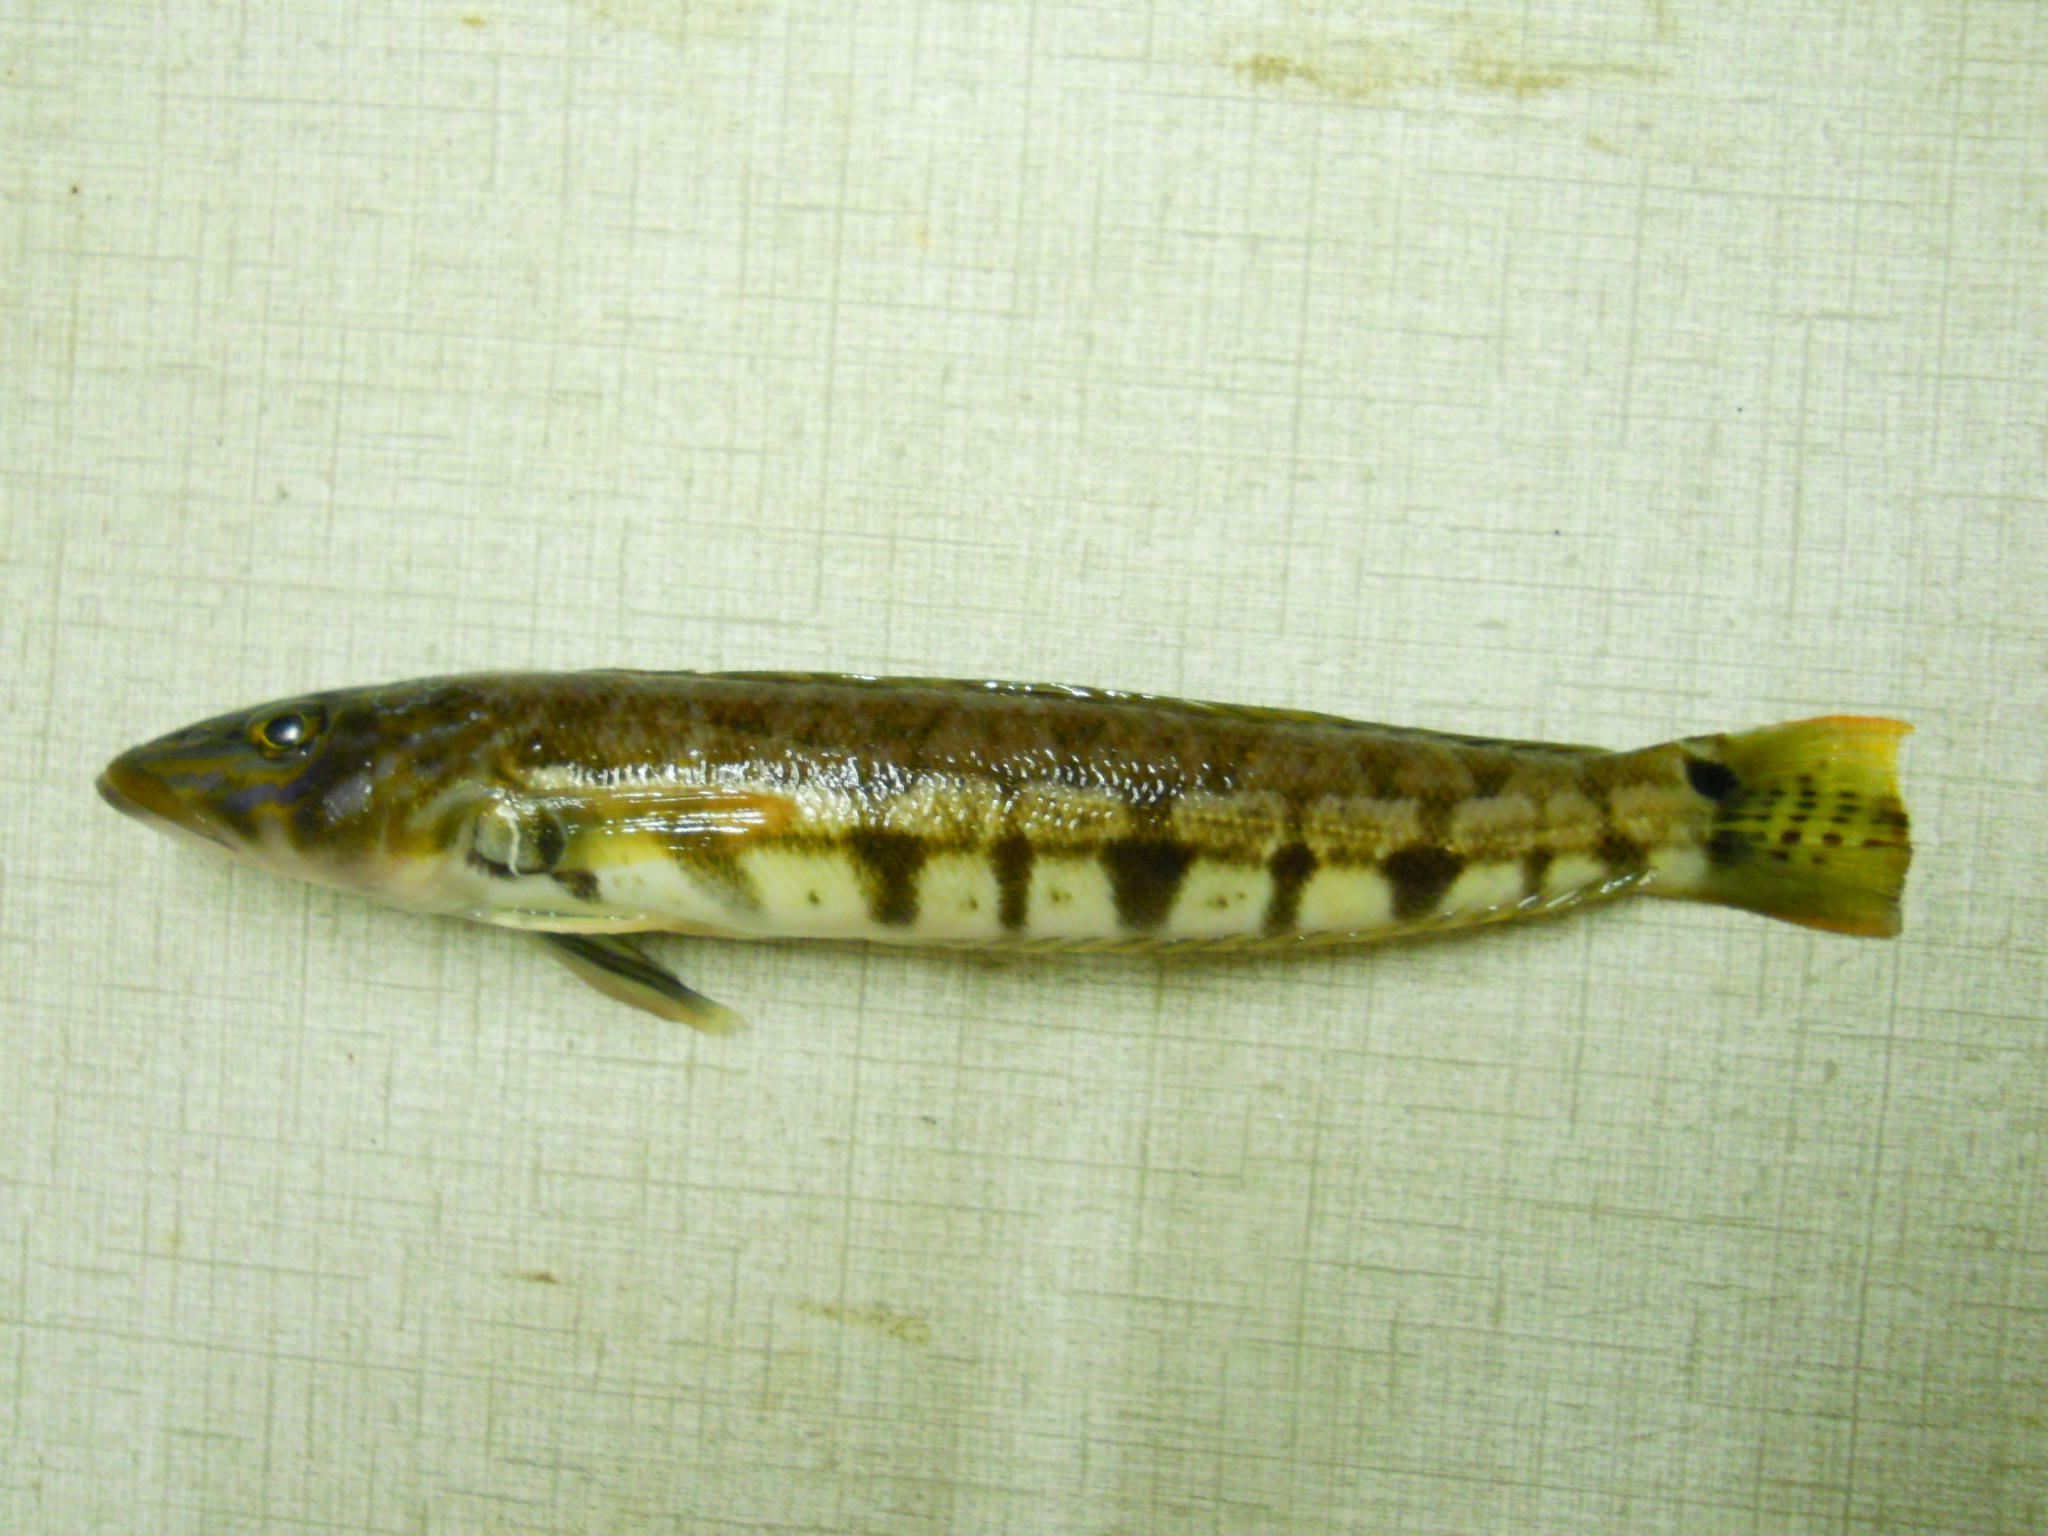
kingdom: Animalia
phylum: Chordata
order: Perciformes
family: Pinguipedidae
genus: Parapercis
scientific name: Parapercis robinsoni
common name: Smallscale sandsmelt
